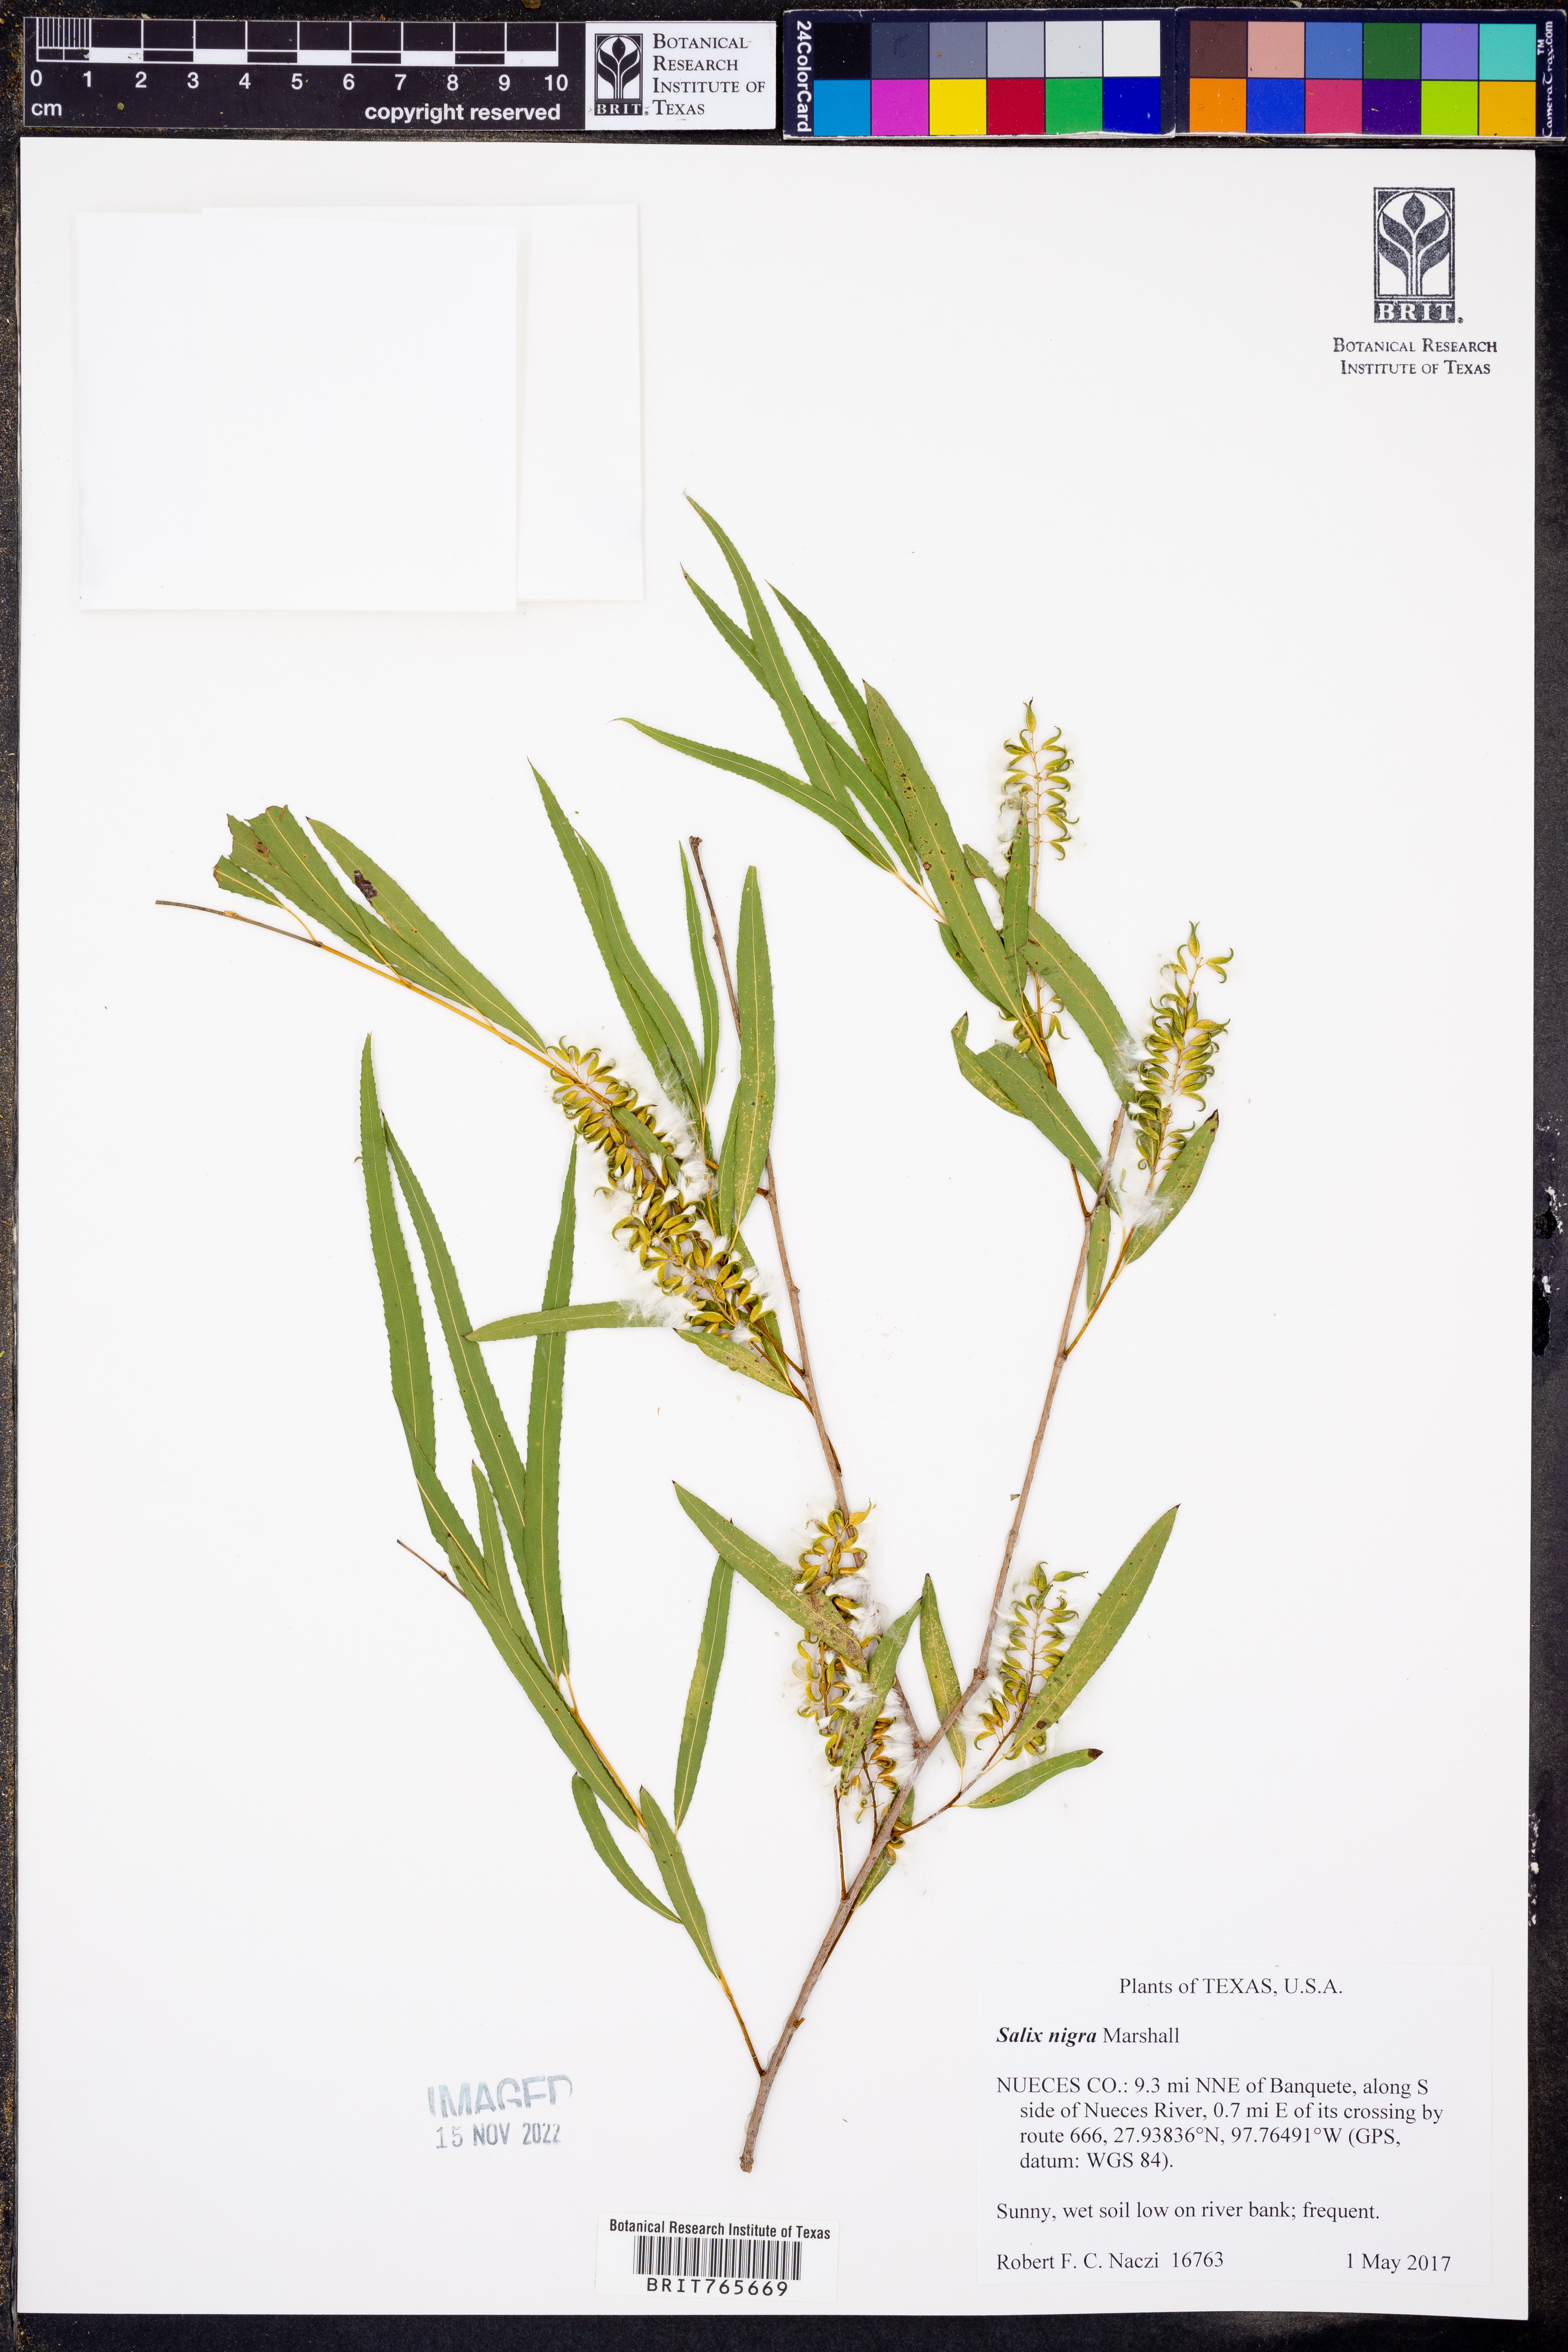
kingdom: Plantae
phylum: Tracheophyta
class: Magnoliopsida
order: Malpighiales
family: Salicaceae
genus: Salix
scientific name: Salix nigra
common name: Black willow
